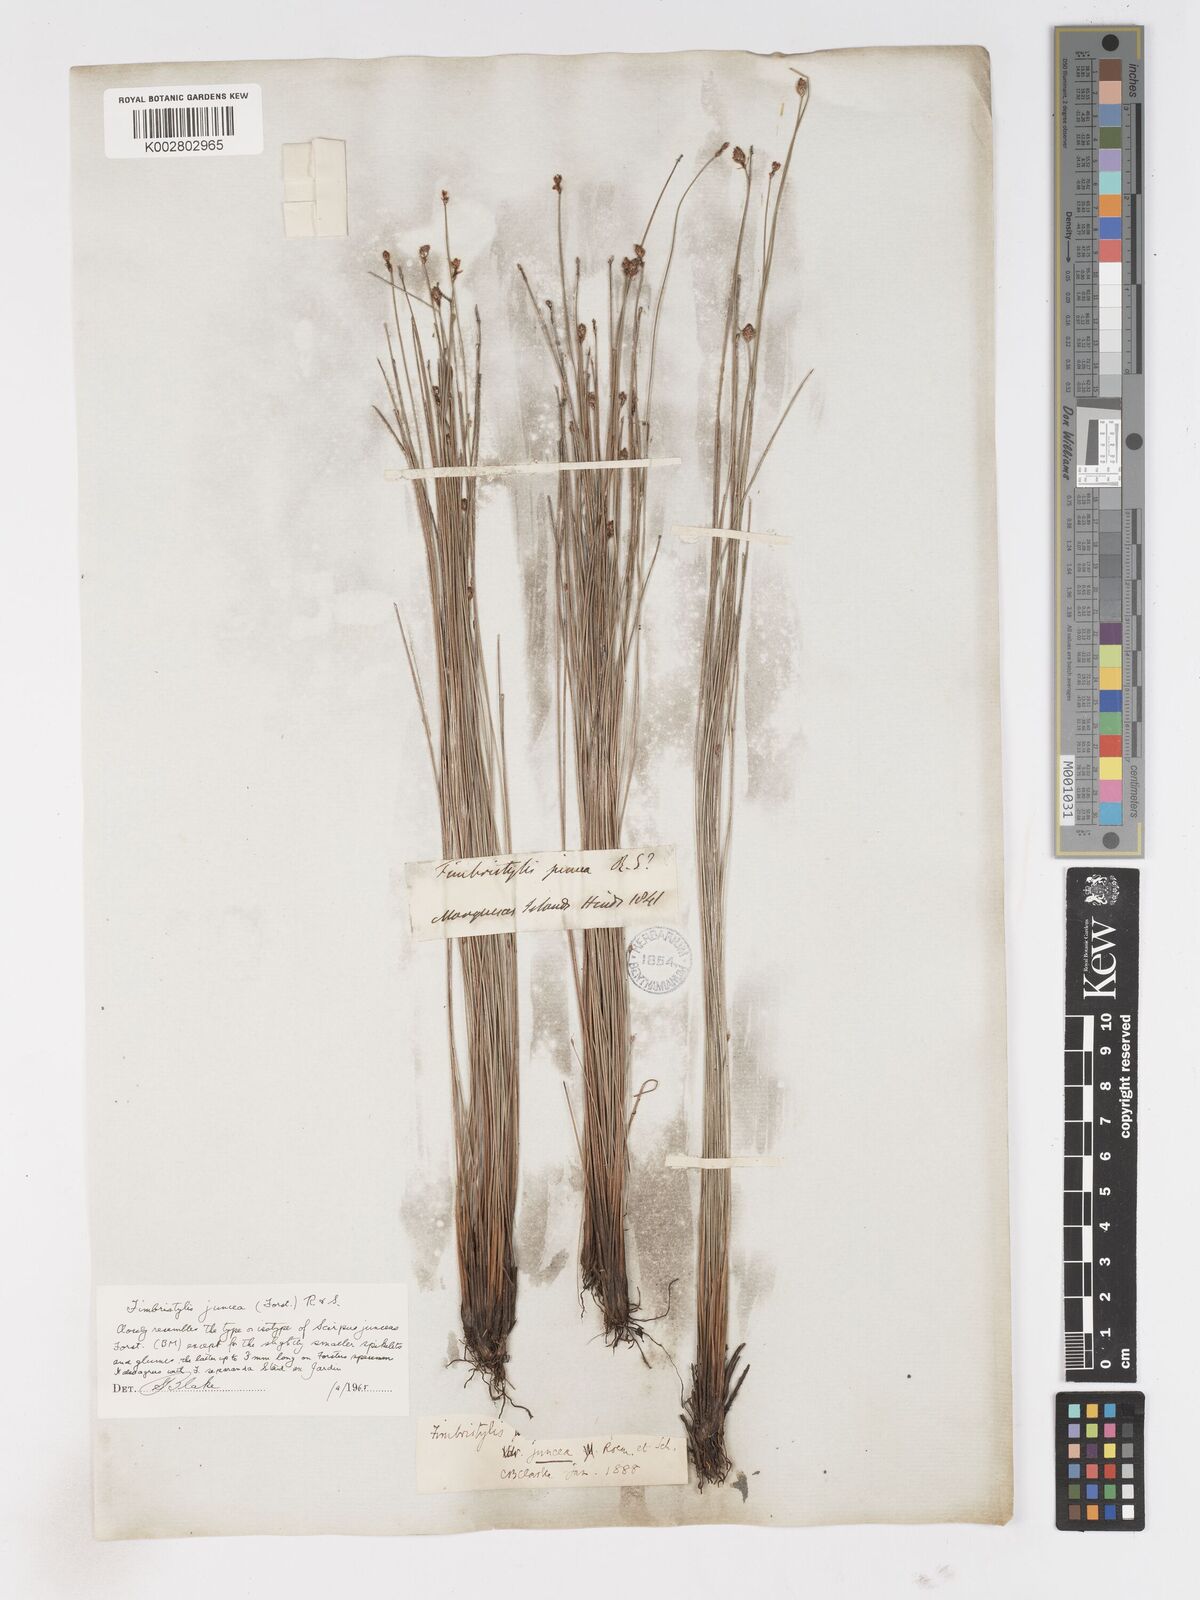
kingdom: Plantae
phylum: Tracheophyta
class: Liliopsida
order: Poales
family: Cyperaceae
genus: Fimbristylis
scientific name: Fimbristylis juncea
